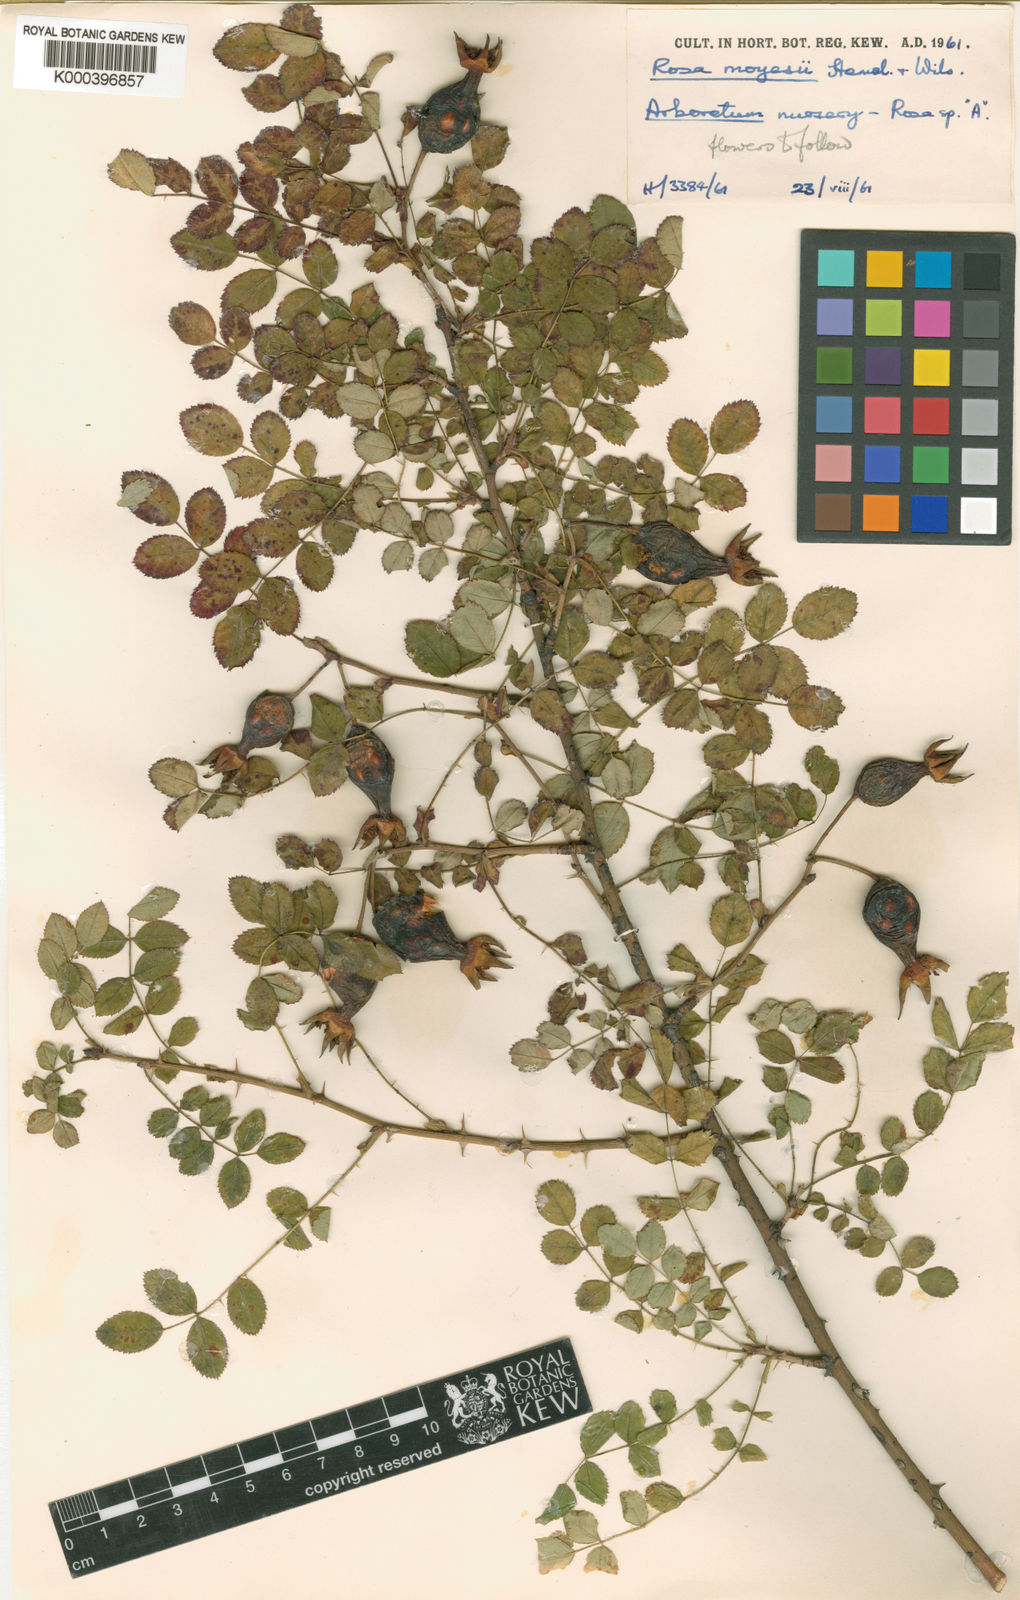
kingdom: Plantae
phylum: Tracheophyta
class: Magnoliopsida
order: Rosales
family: Rosaceae
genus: Rosa
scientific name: Rosa moyesii
